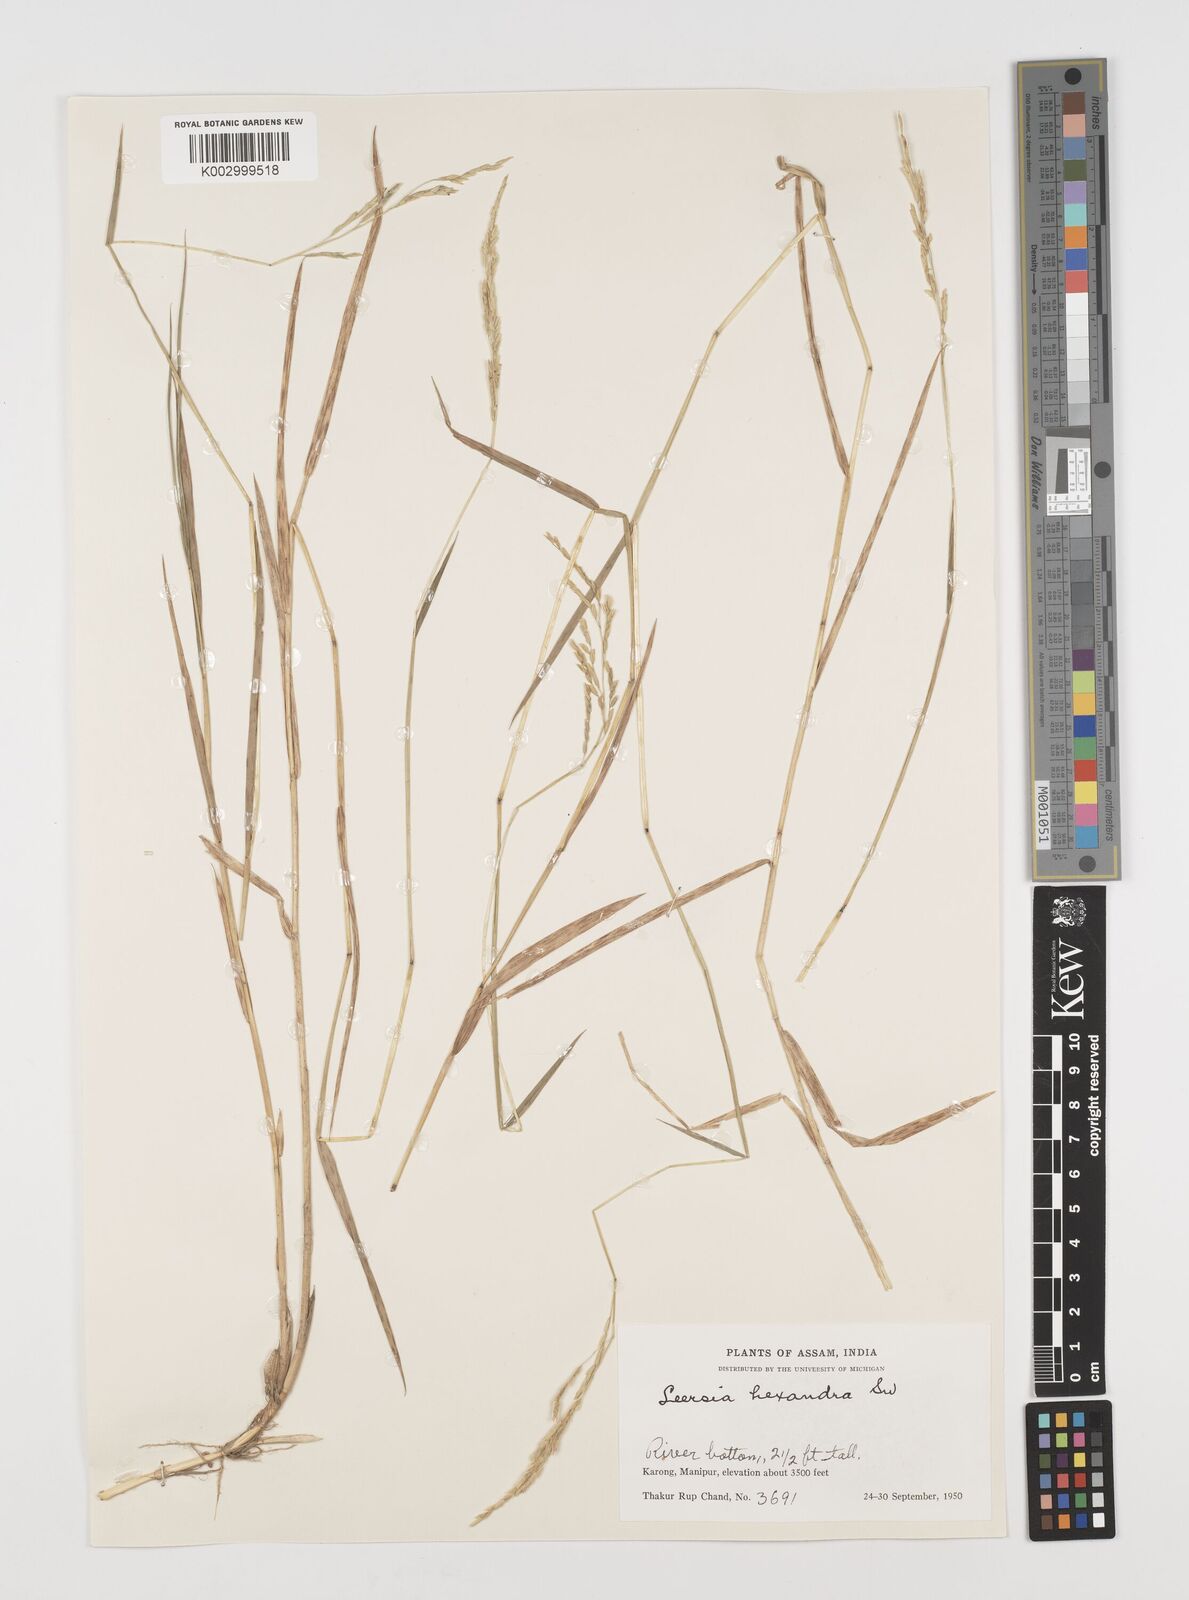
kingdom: Plantae
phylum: Tracheophyta
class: Liliopsida
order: Poales
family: Poaceae
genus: Leersia
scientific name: Leersia hexandra
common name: Southern cut grass
